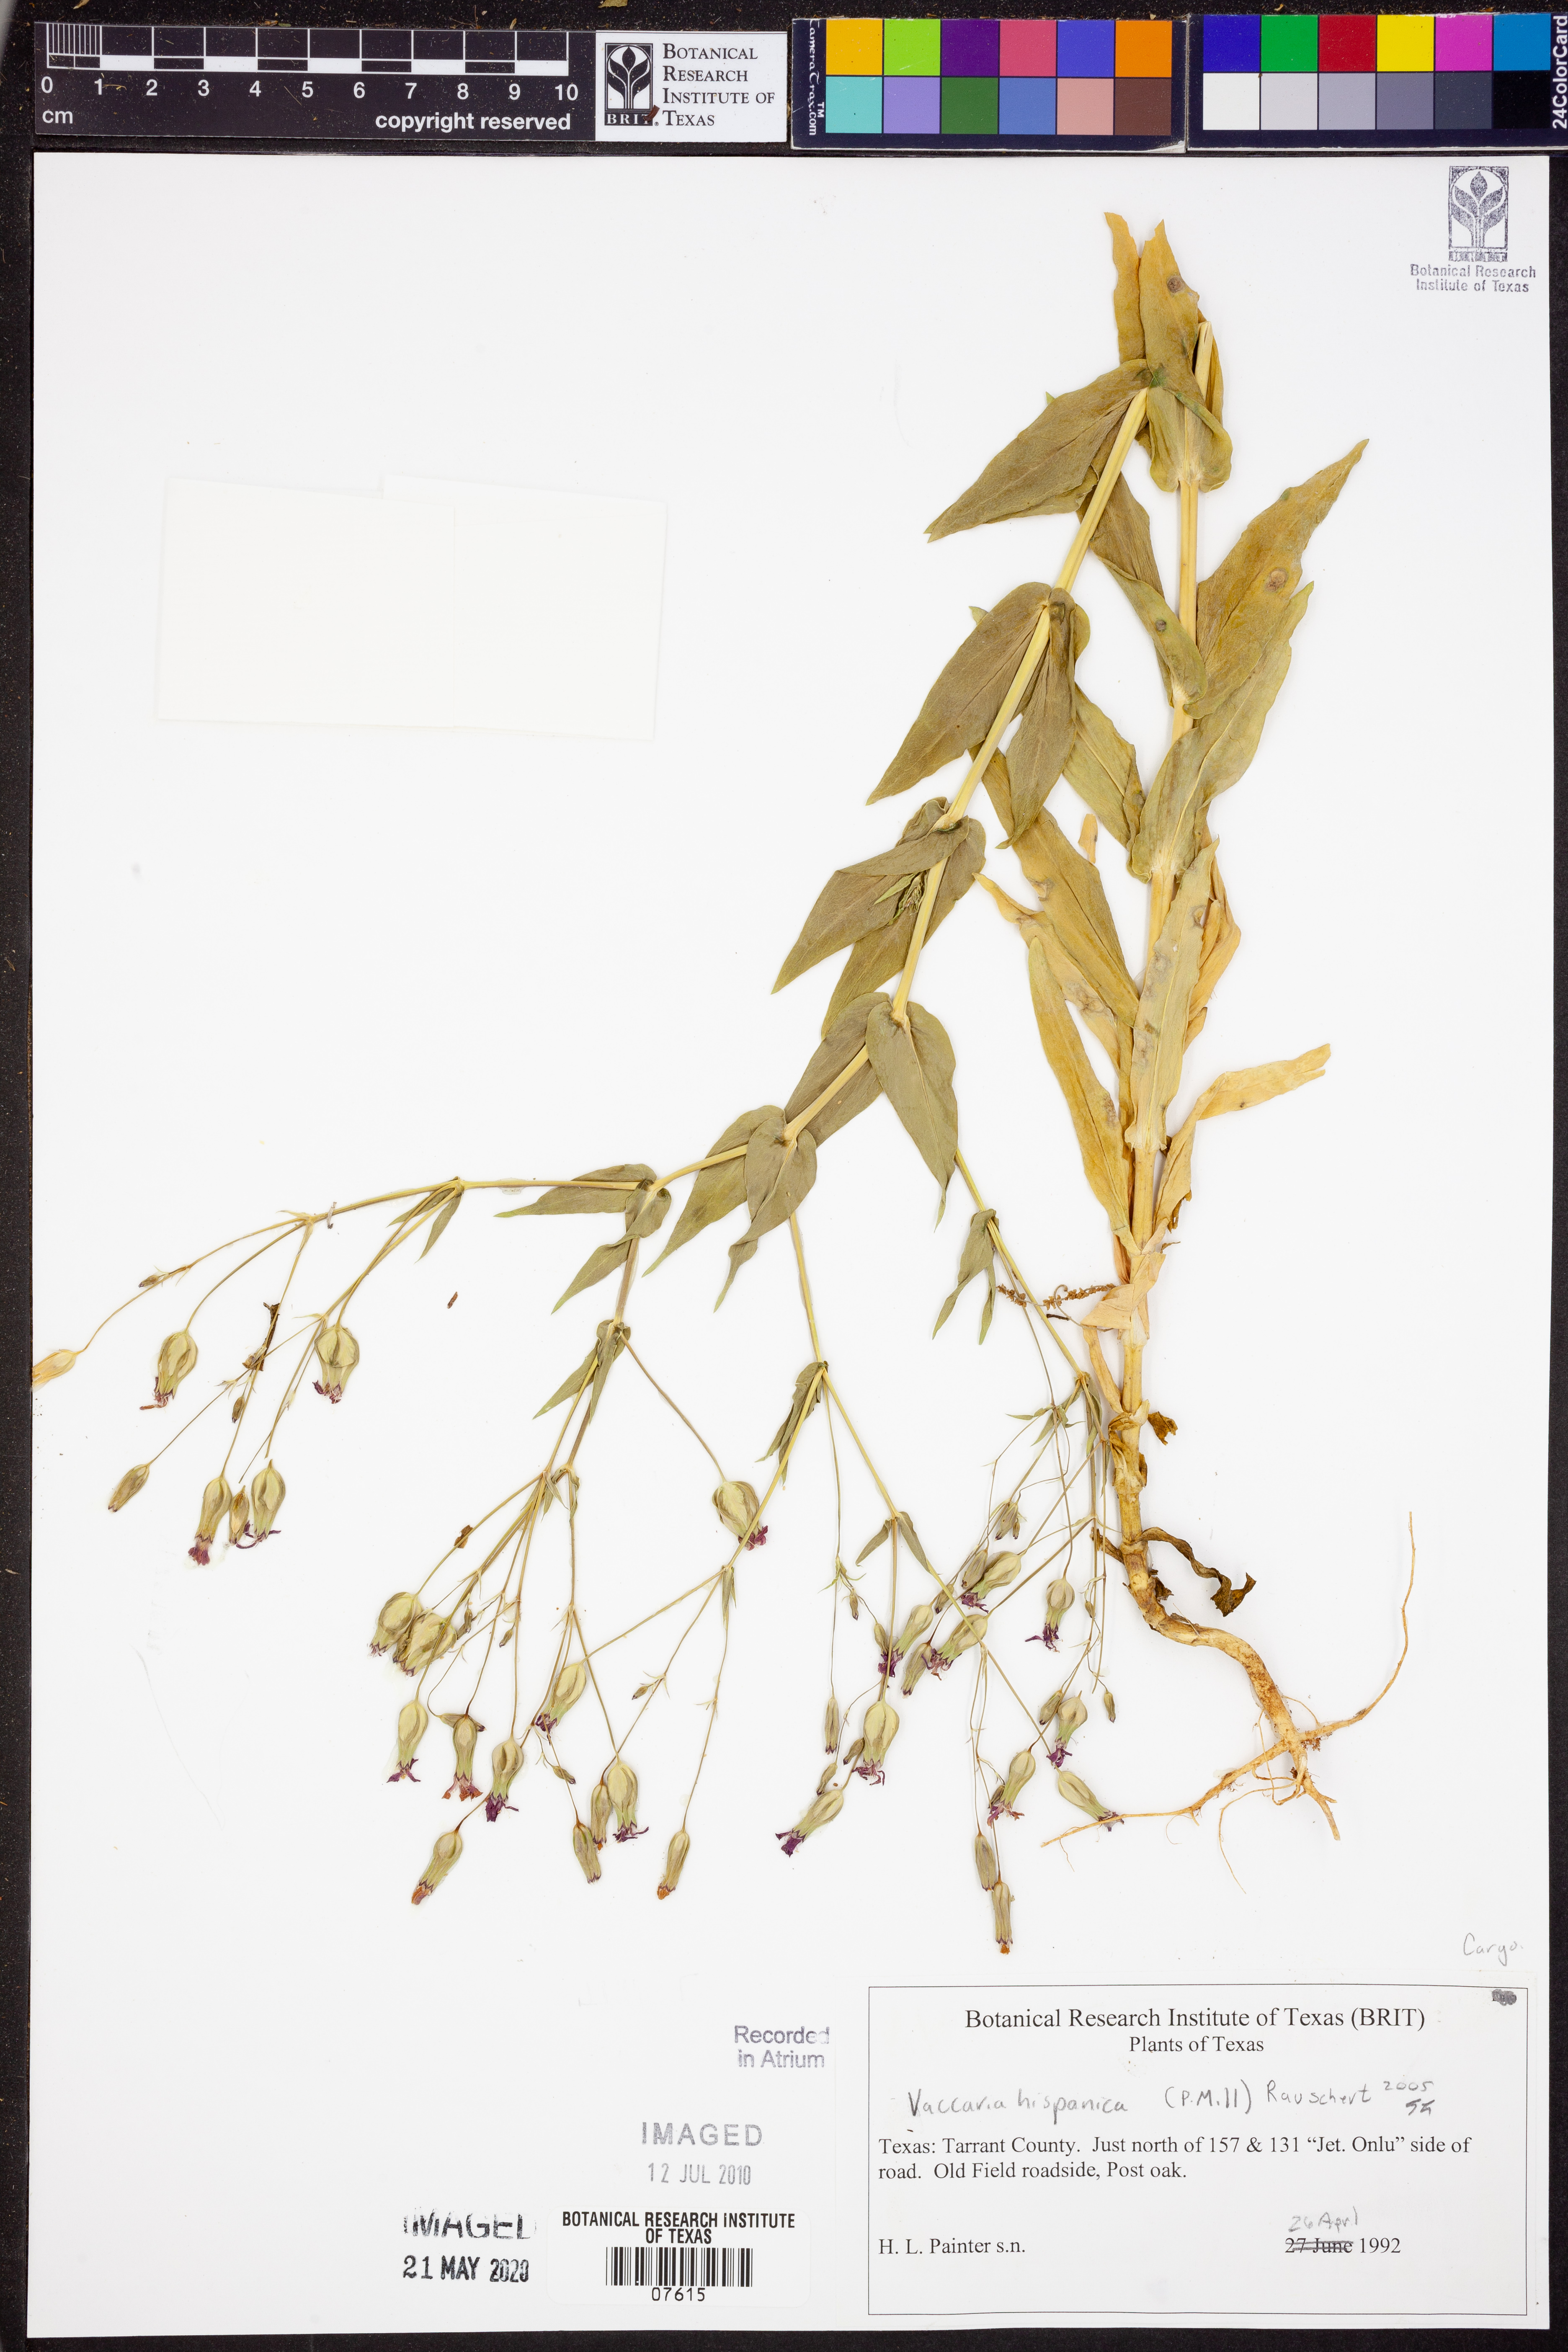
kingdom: Plantae
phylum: Tracheophyta
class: Magnoliopsida
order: Caryophyllales
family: Caryophyllaceae
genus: Gypsophila
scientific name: Gypsophila vaccaria
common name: Cow soapwort
